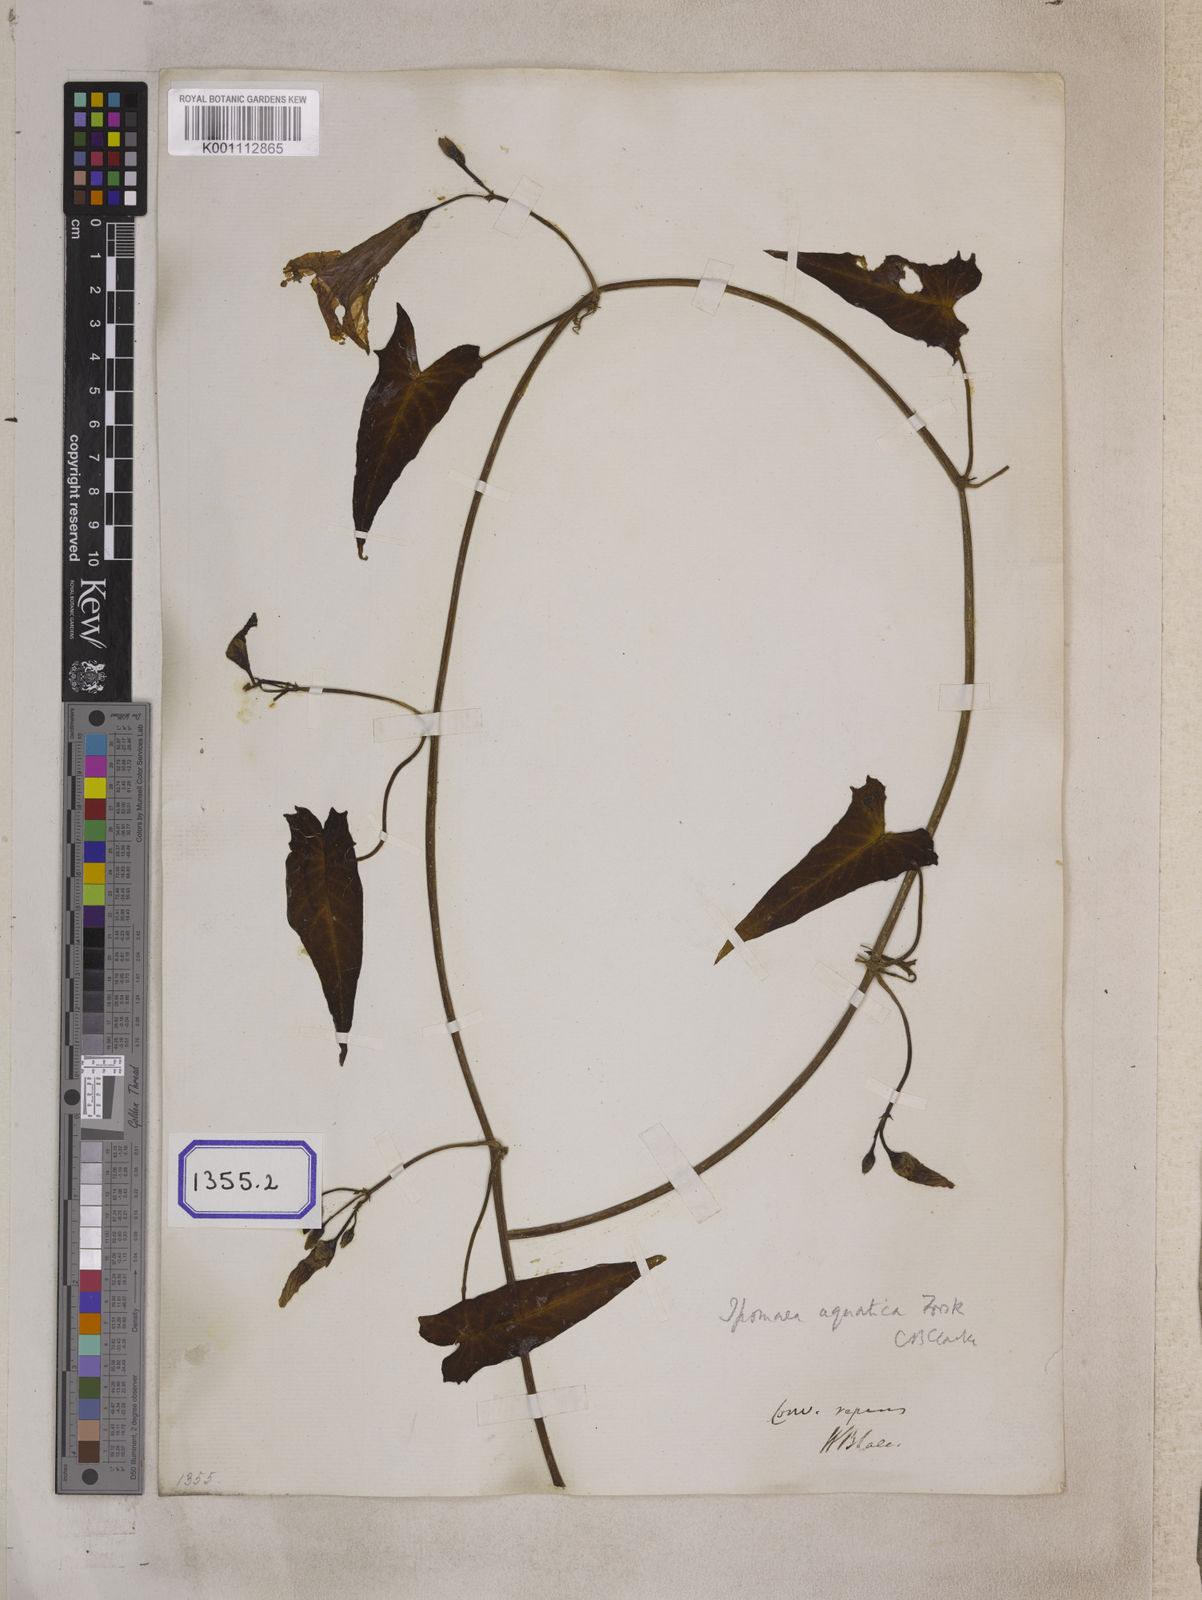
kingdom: Plantae
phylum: Tracheophyta
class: Magnoliopsida
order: Solanales
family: Convolvulaceae
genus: Calystegia
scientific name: Calystegia sepium
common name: Hedge bindweed
